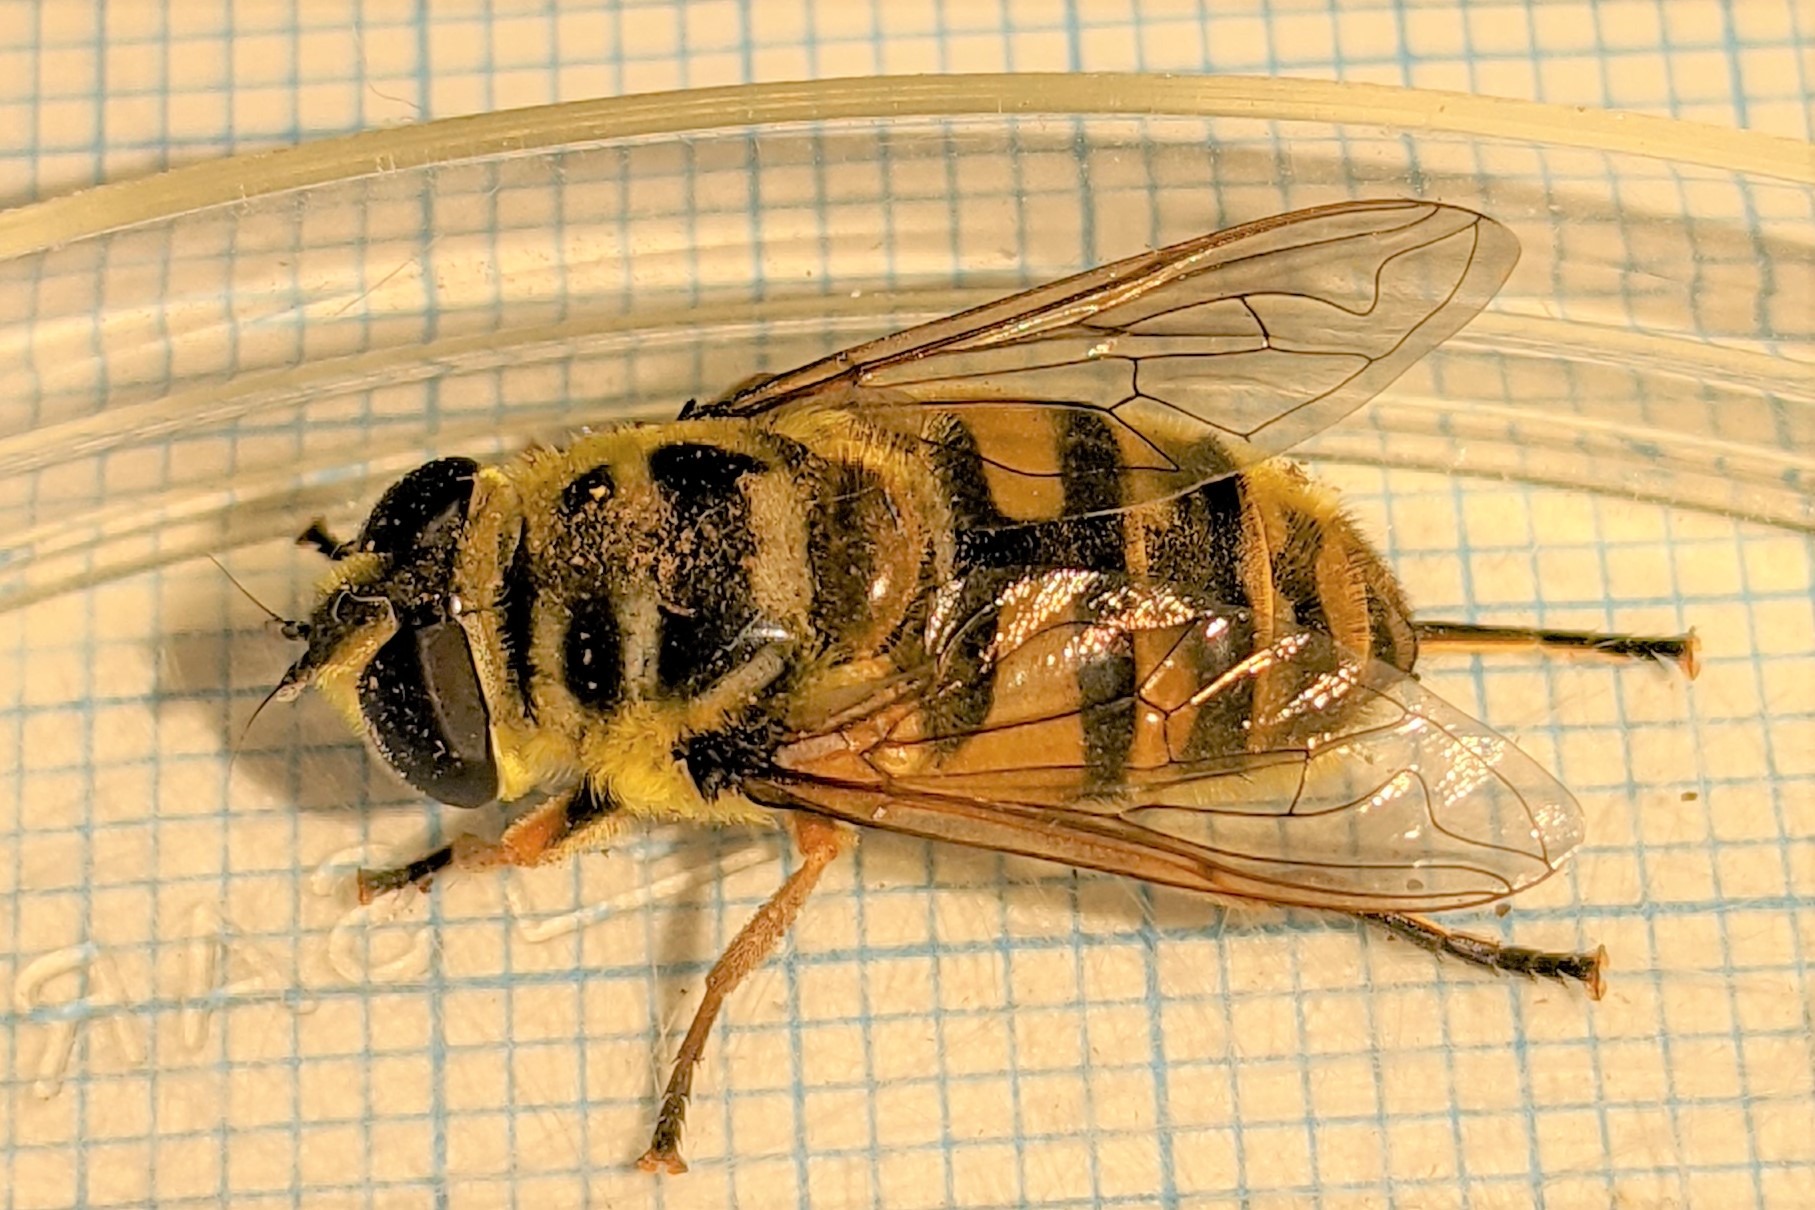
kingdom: Animalia
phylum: Arthropoda
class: Insecta
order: Diptera
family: Syrphidae
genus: Myathropa
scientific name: Myathropa florea
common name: Dødningehoved-svirreflue
